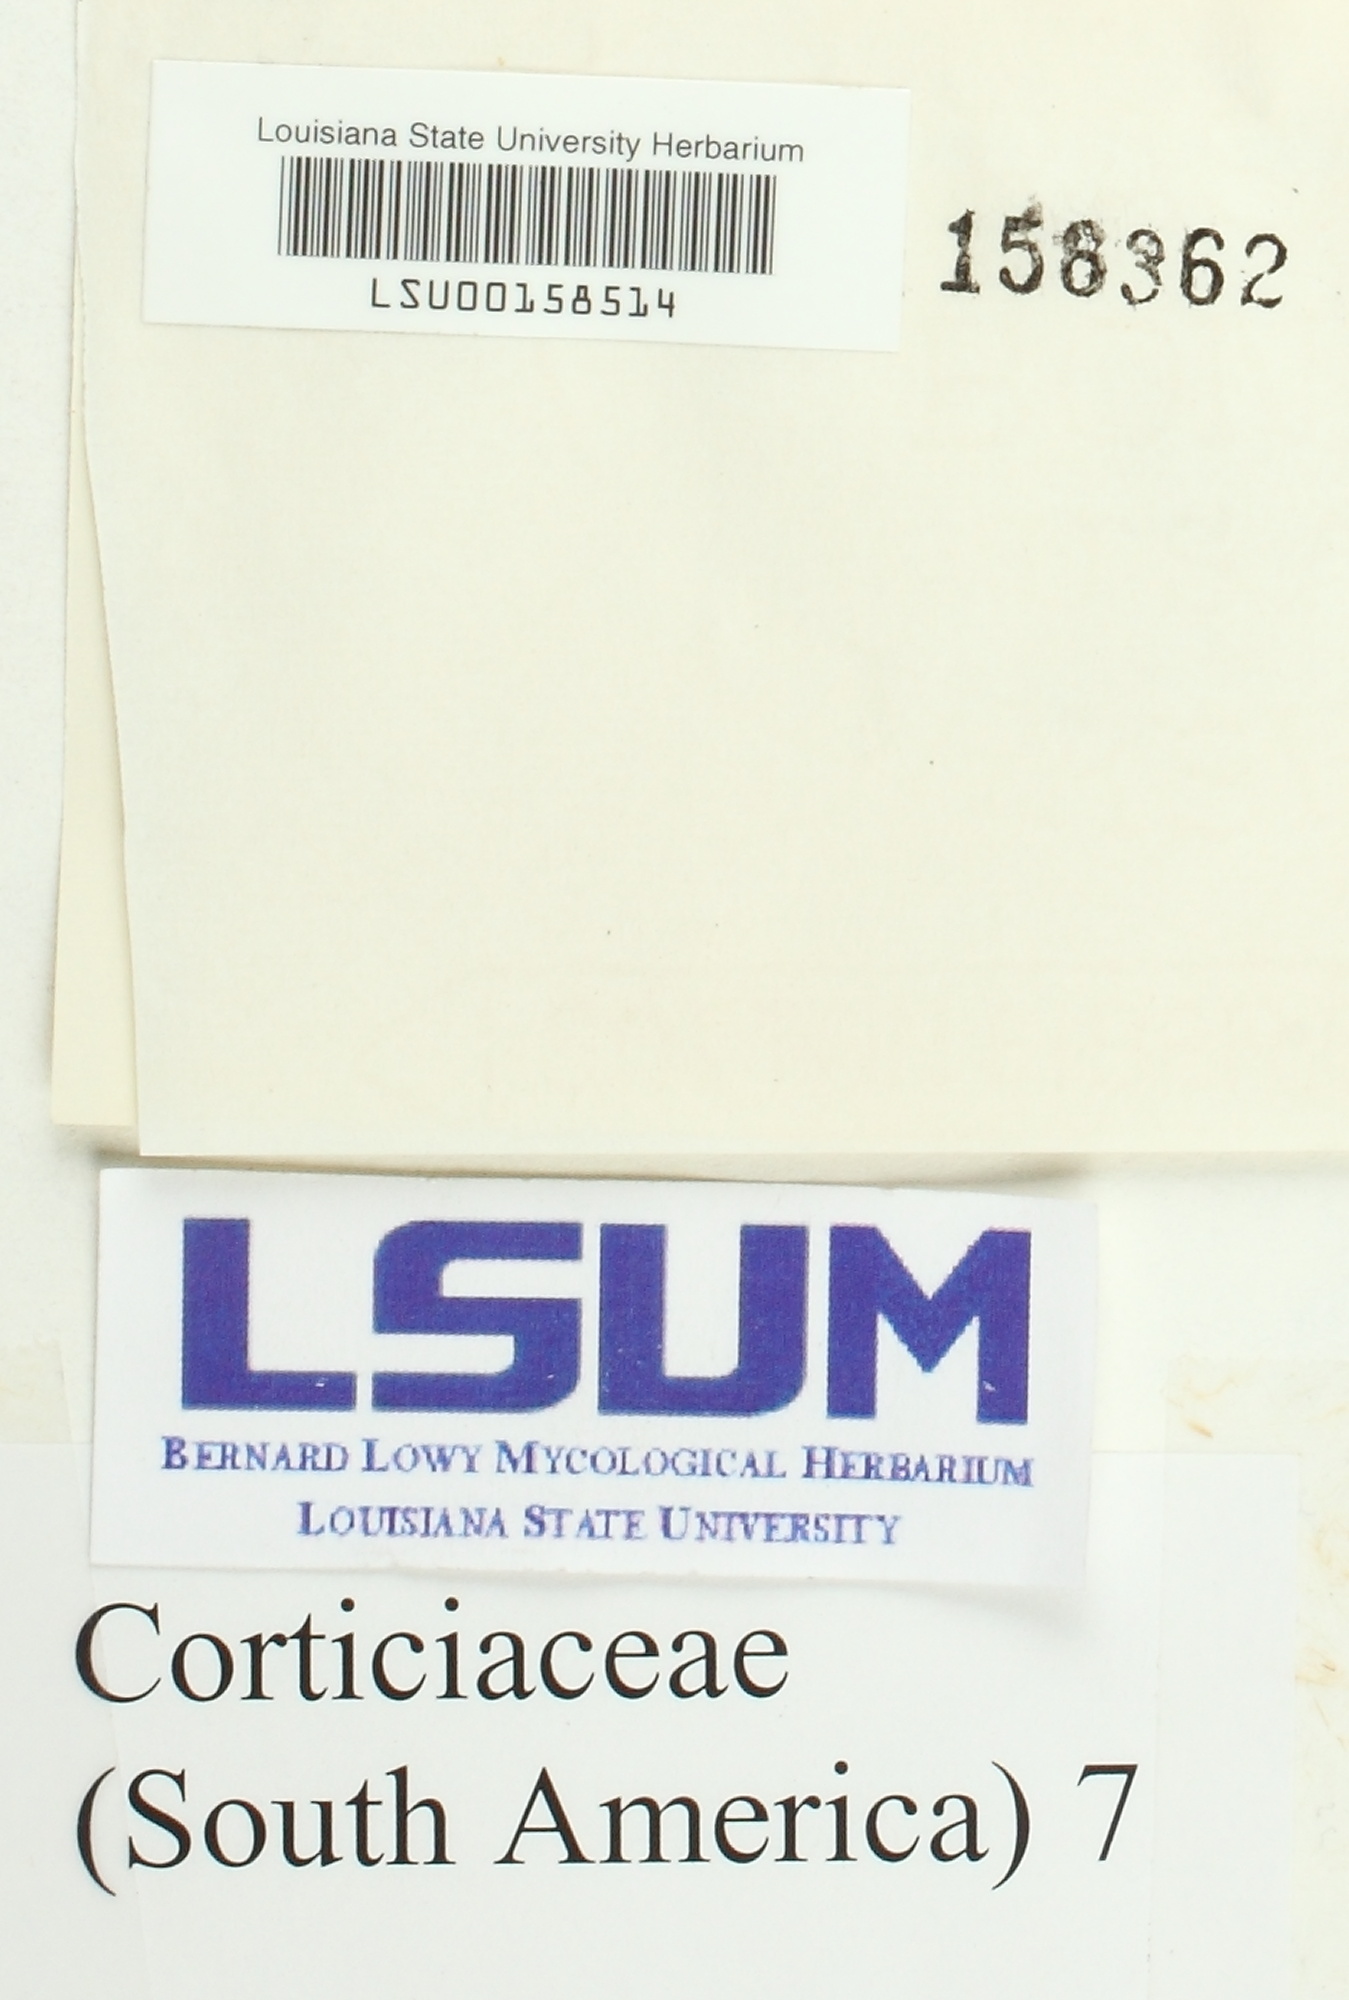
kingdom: Fungi
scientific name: Fungi
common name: Fungi
